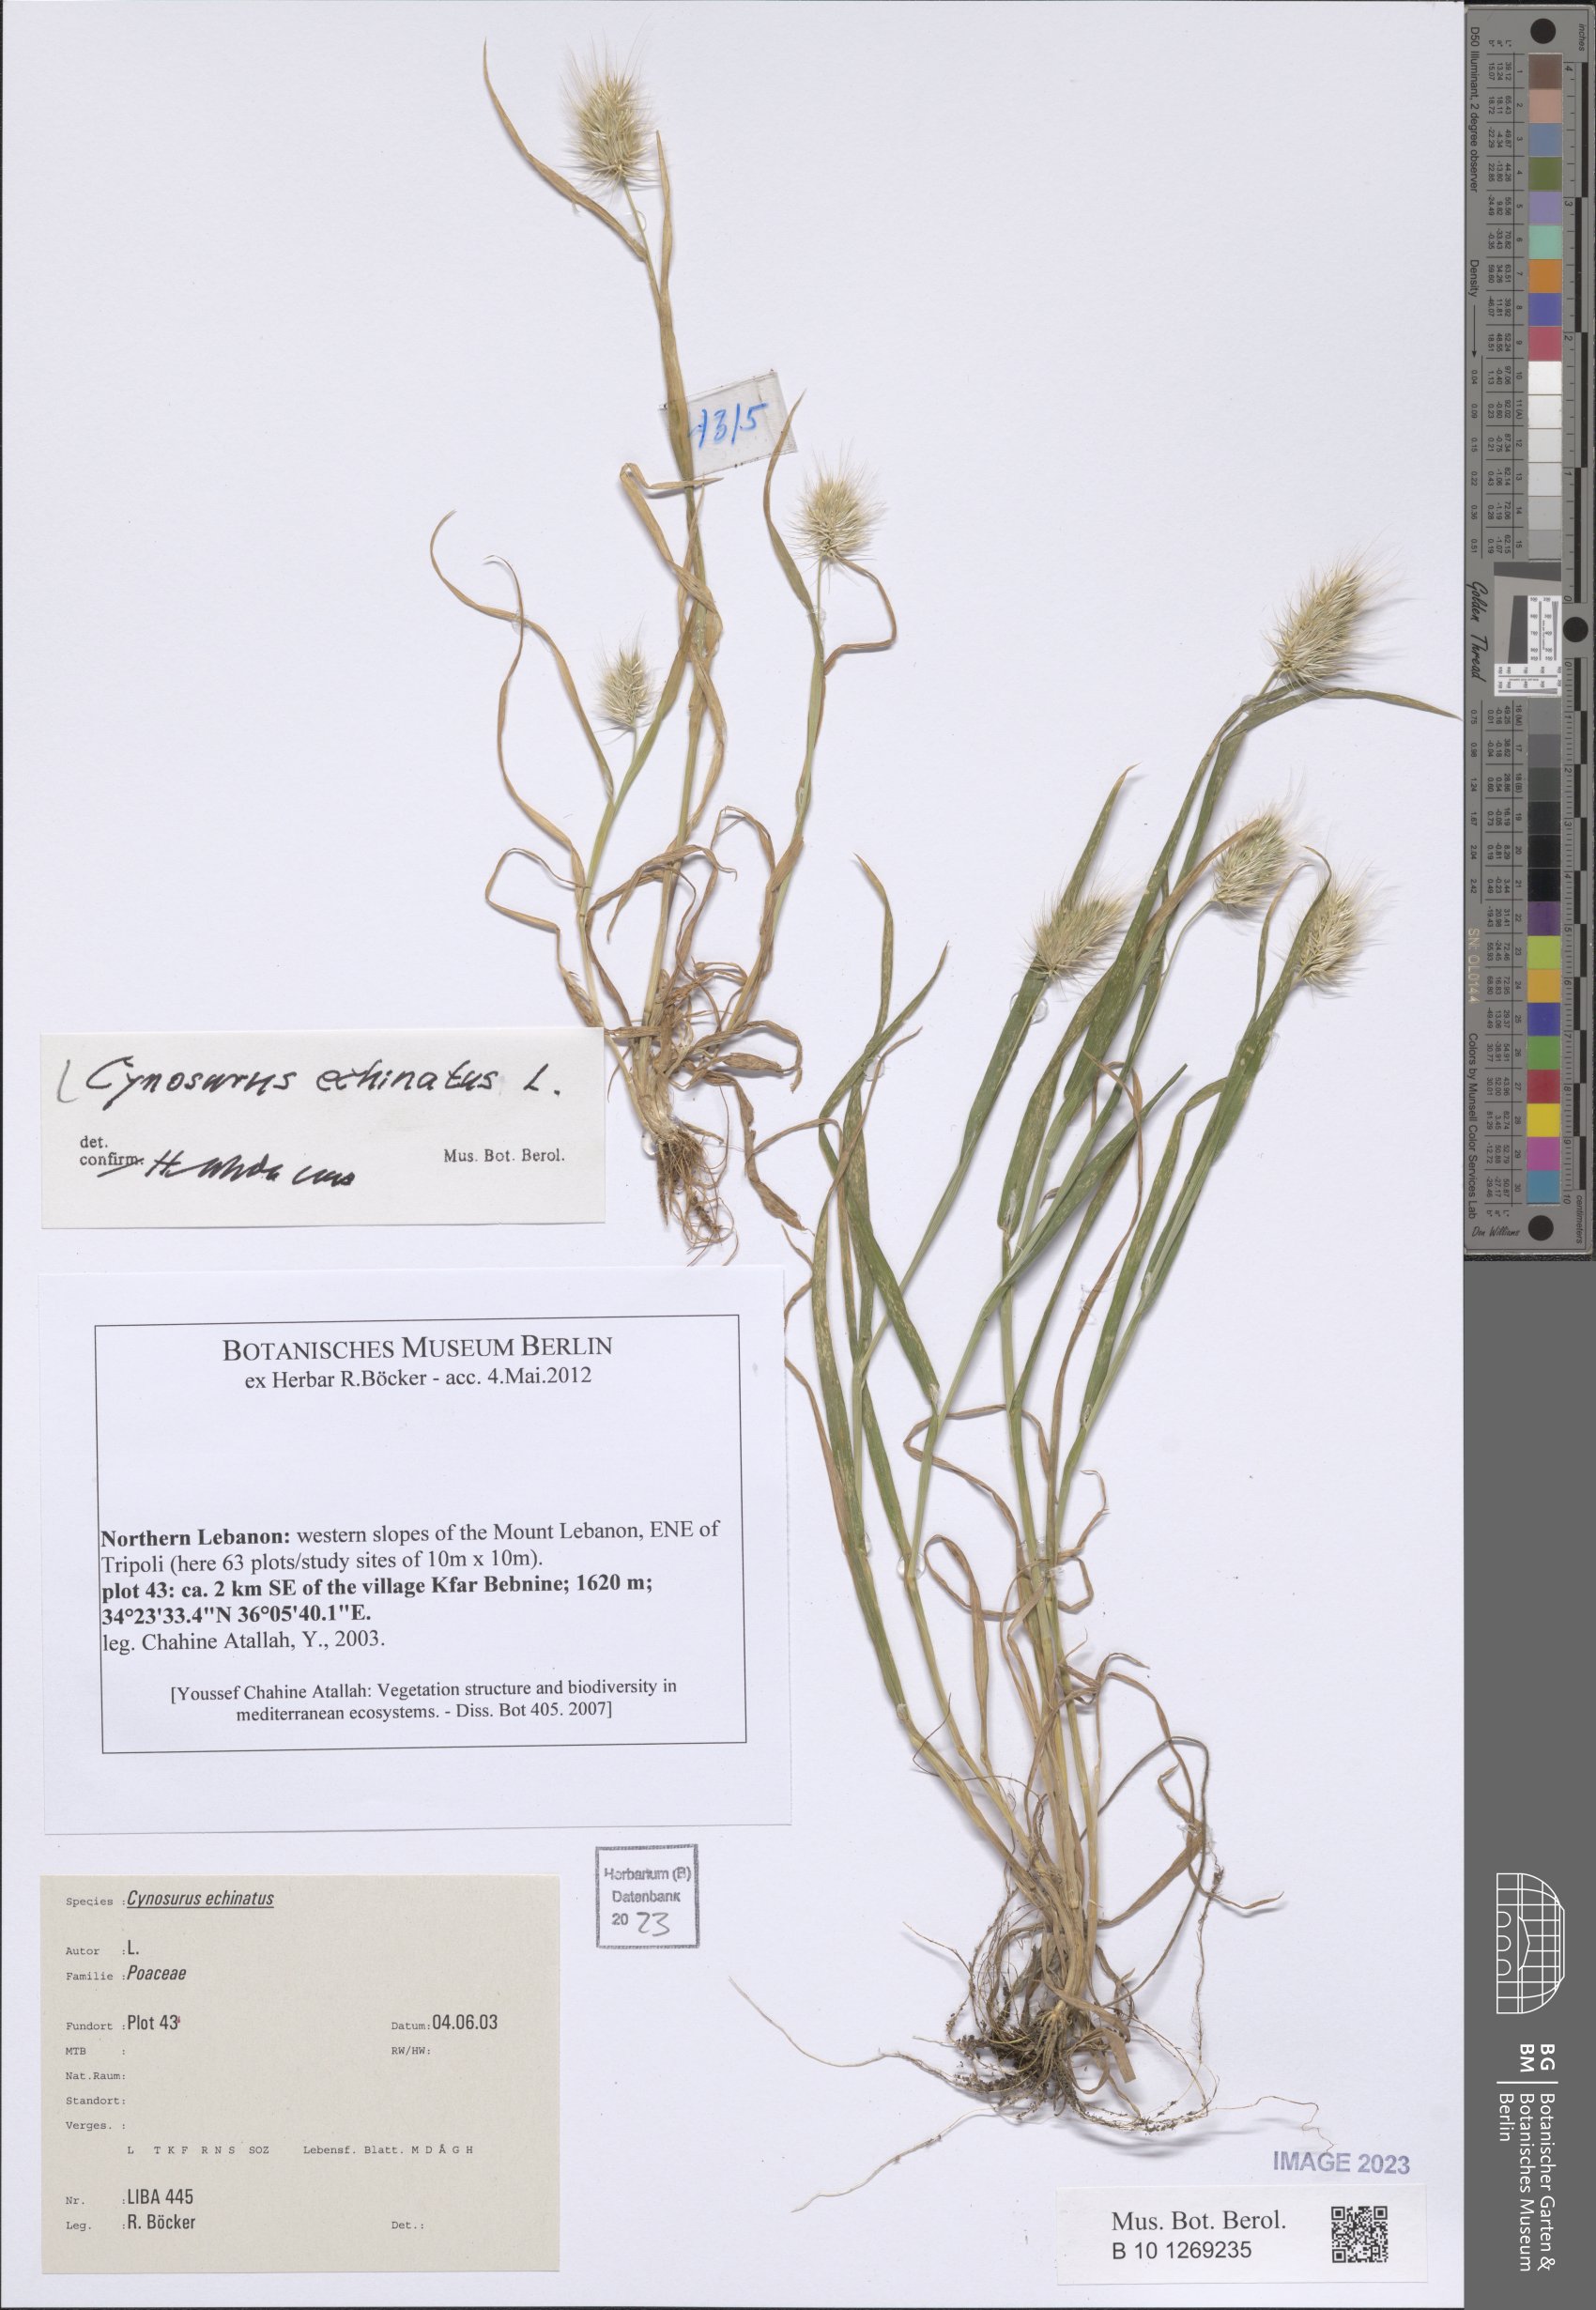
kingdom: Plantae
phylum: Tracheophyta
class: Liliopsida
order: Poales
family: Poaceae
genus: Cynosurus
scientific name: Cynosurus echinatus
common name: Rough dog's-tail
